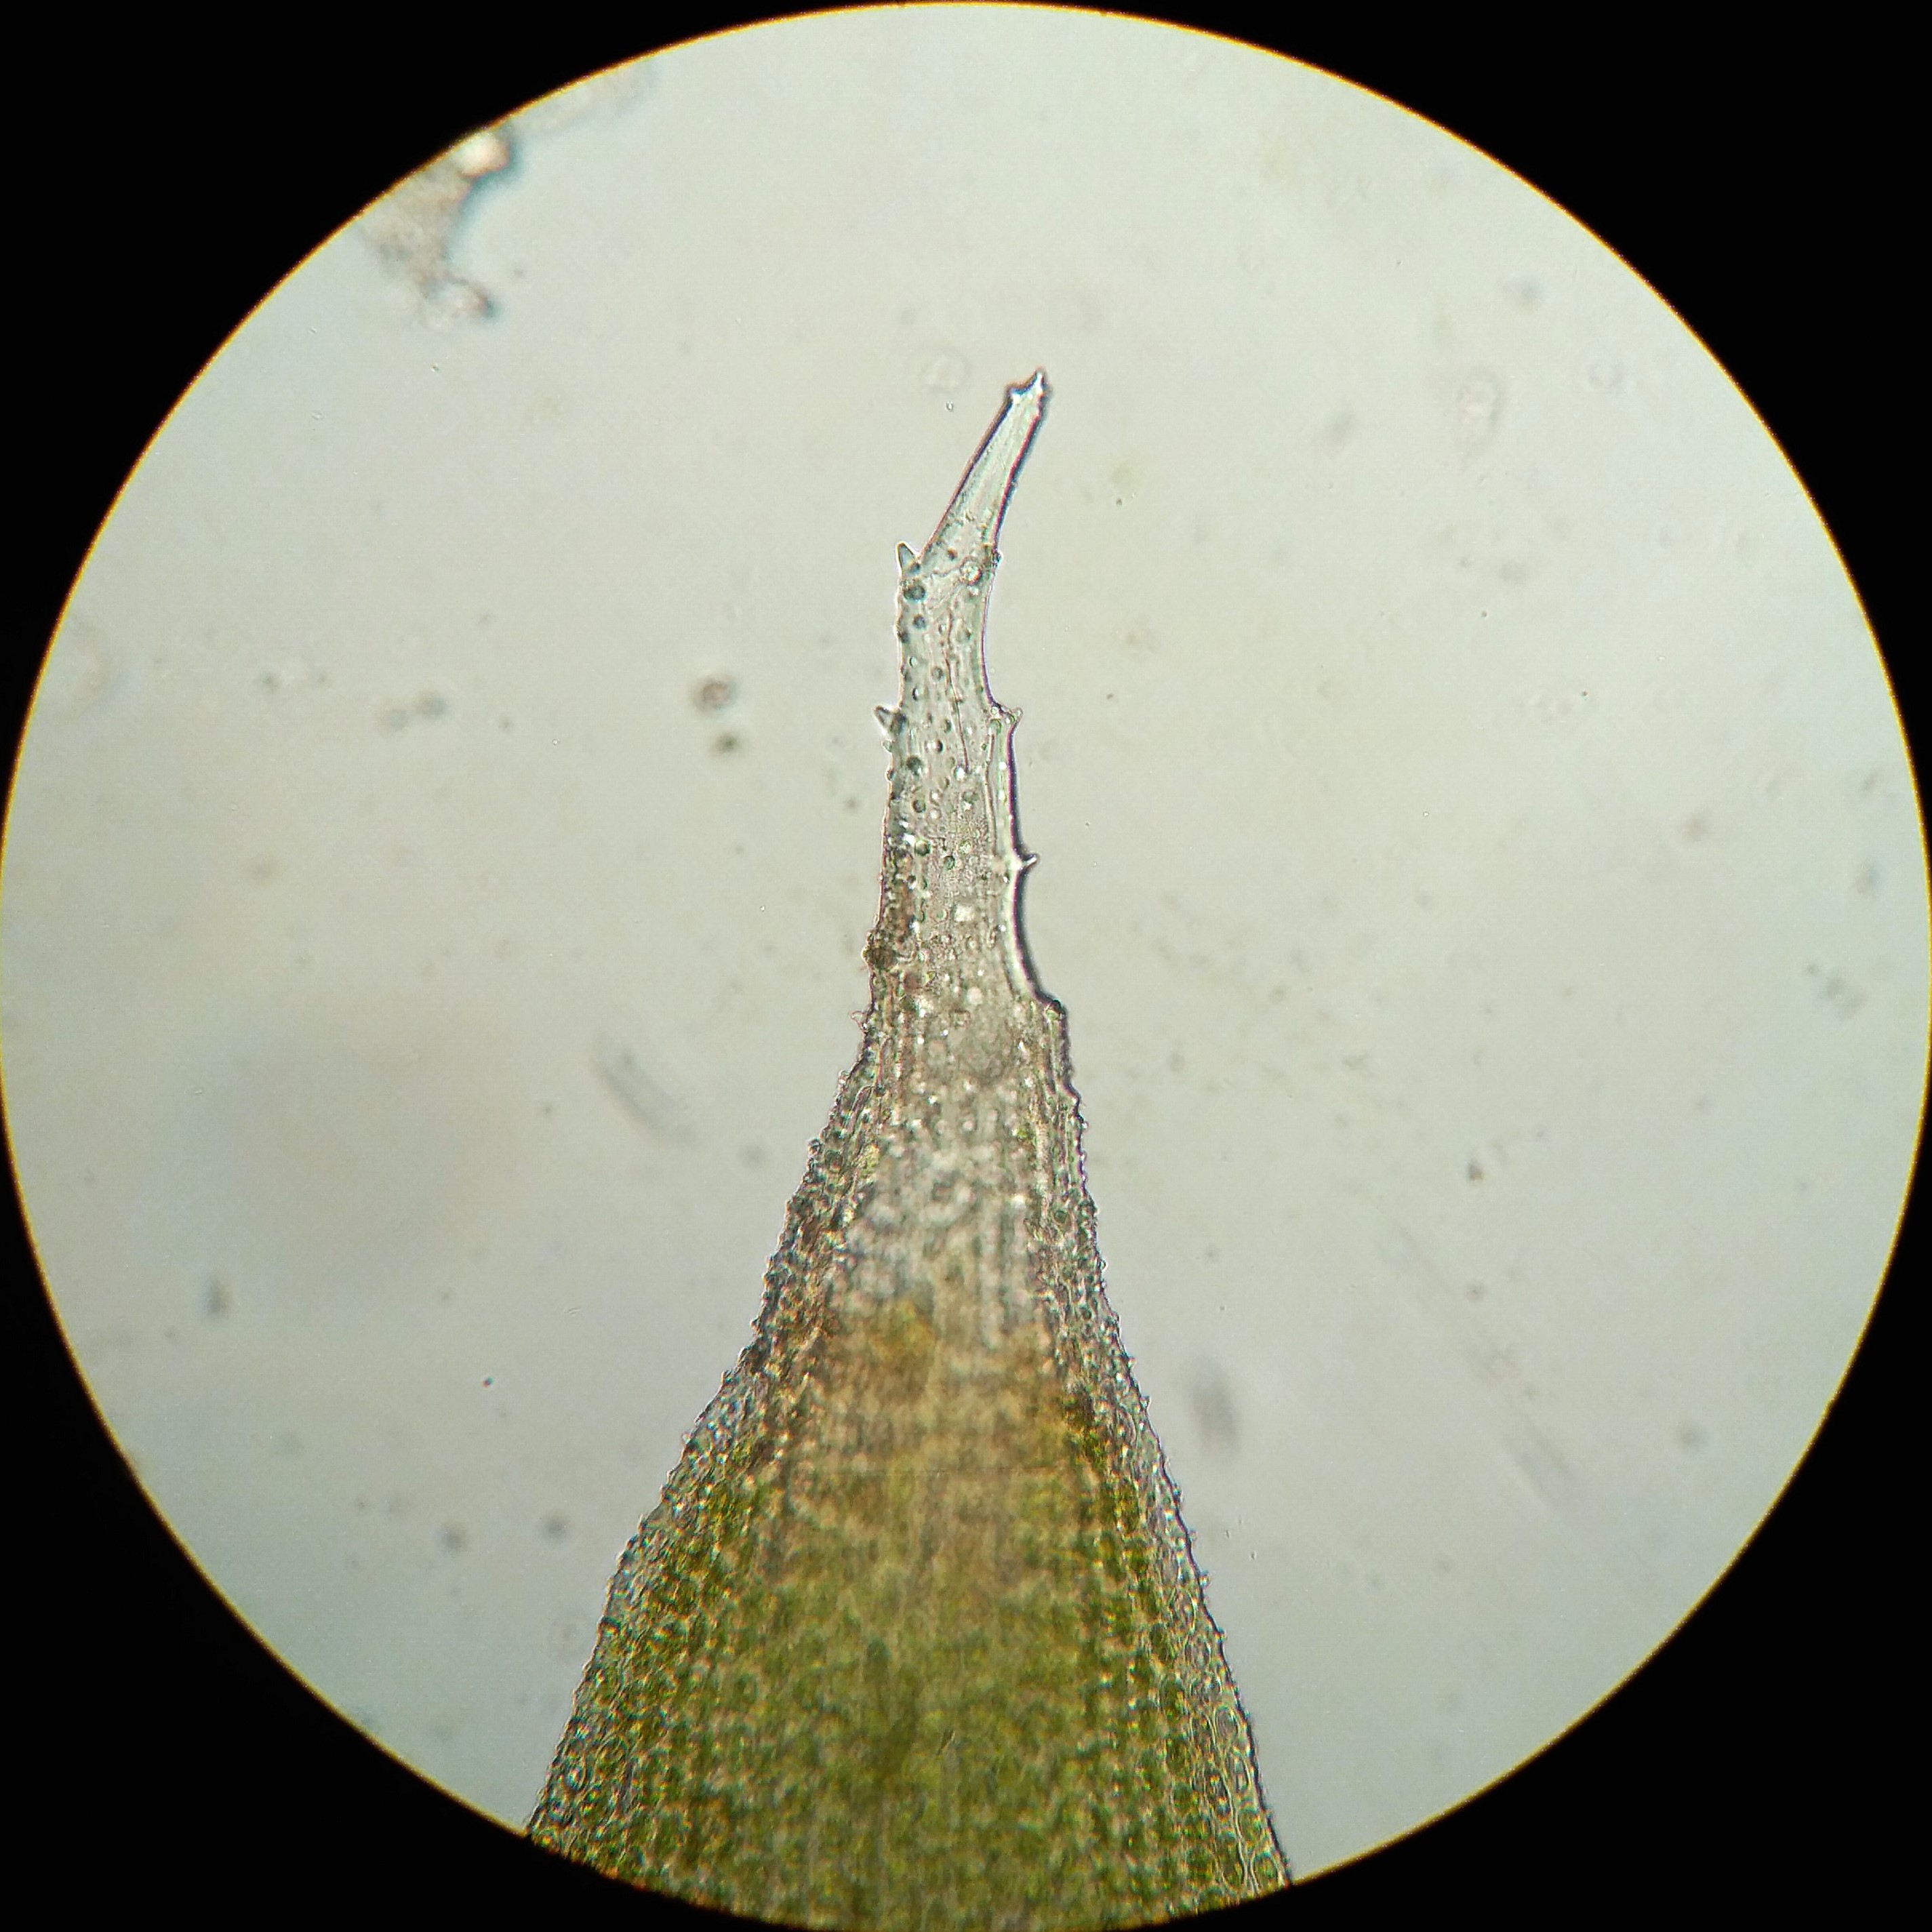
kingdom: Plantae
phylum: Bryophyta
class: Bryopsida
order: Hedwigiales
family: Hedwigiaceae
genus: Hedwigia
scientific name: Hedwigia ciliata
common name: Hvidspidset hedwigia
